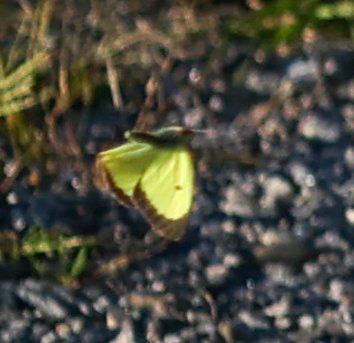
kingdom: Animalia
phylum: Arthropoda
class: Insecta
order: Lepidoptera
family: Pieridae
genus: Colias
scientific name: Colias philodice
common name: Clouded Sulphur
